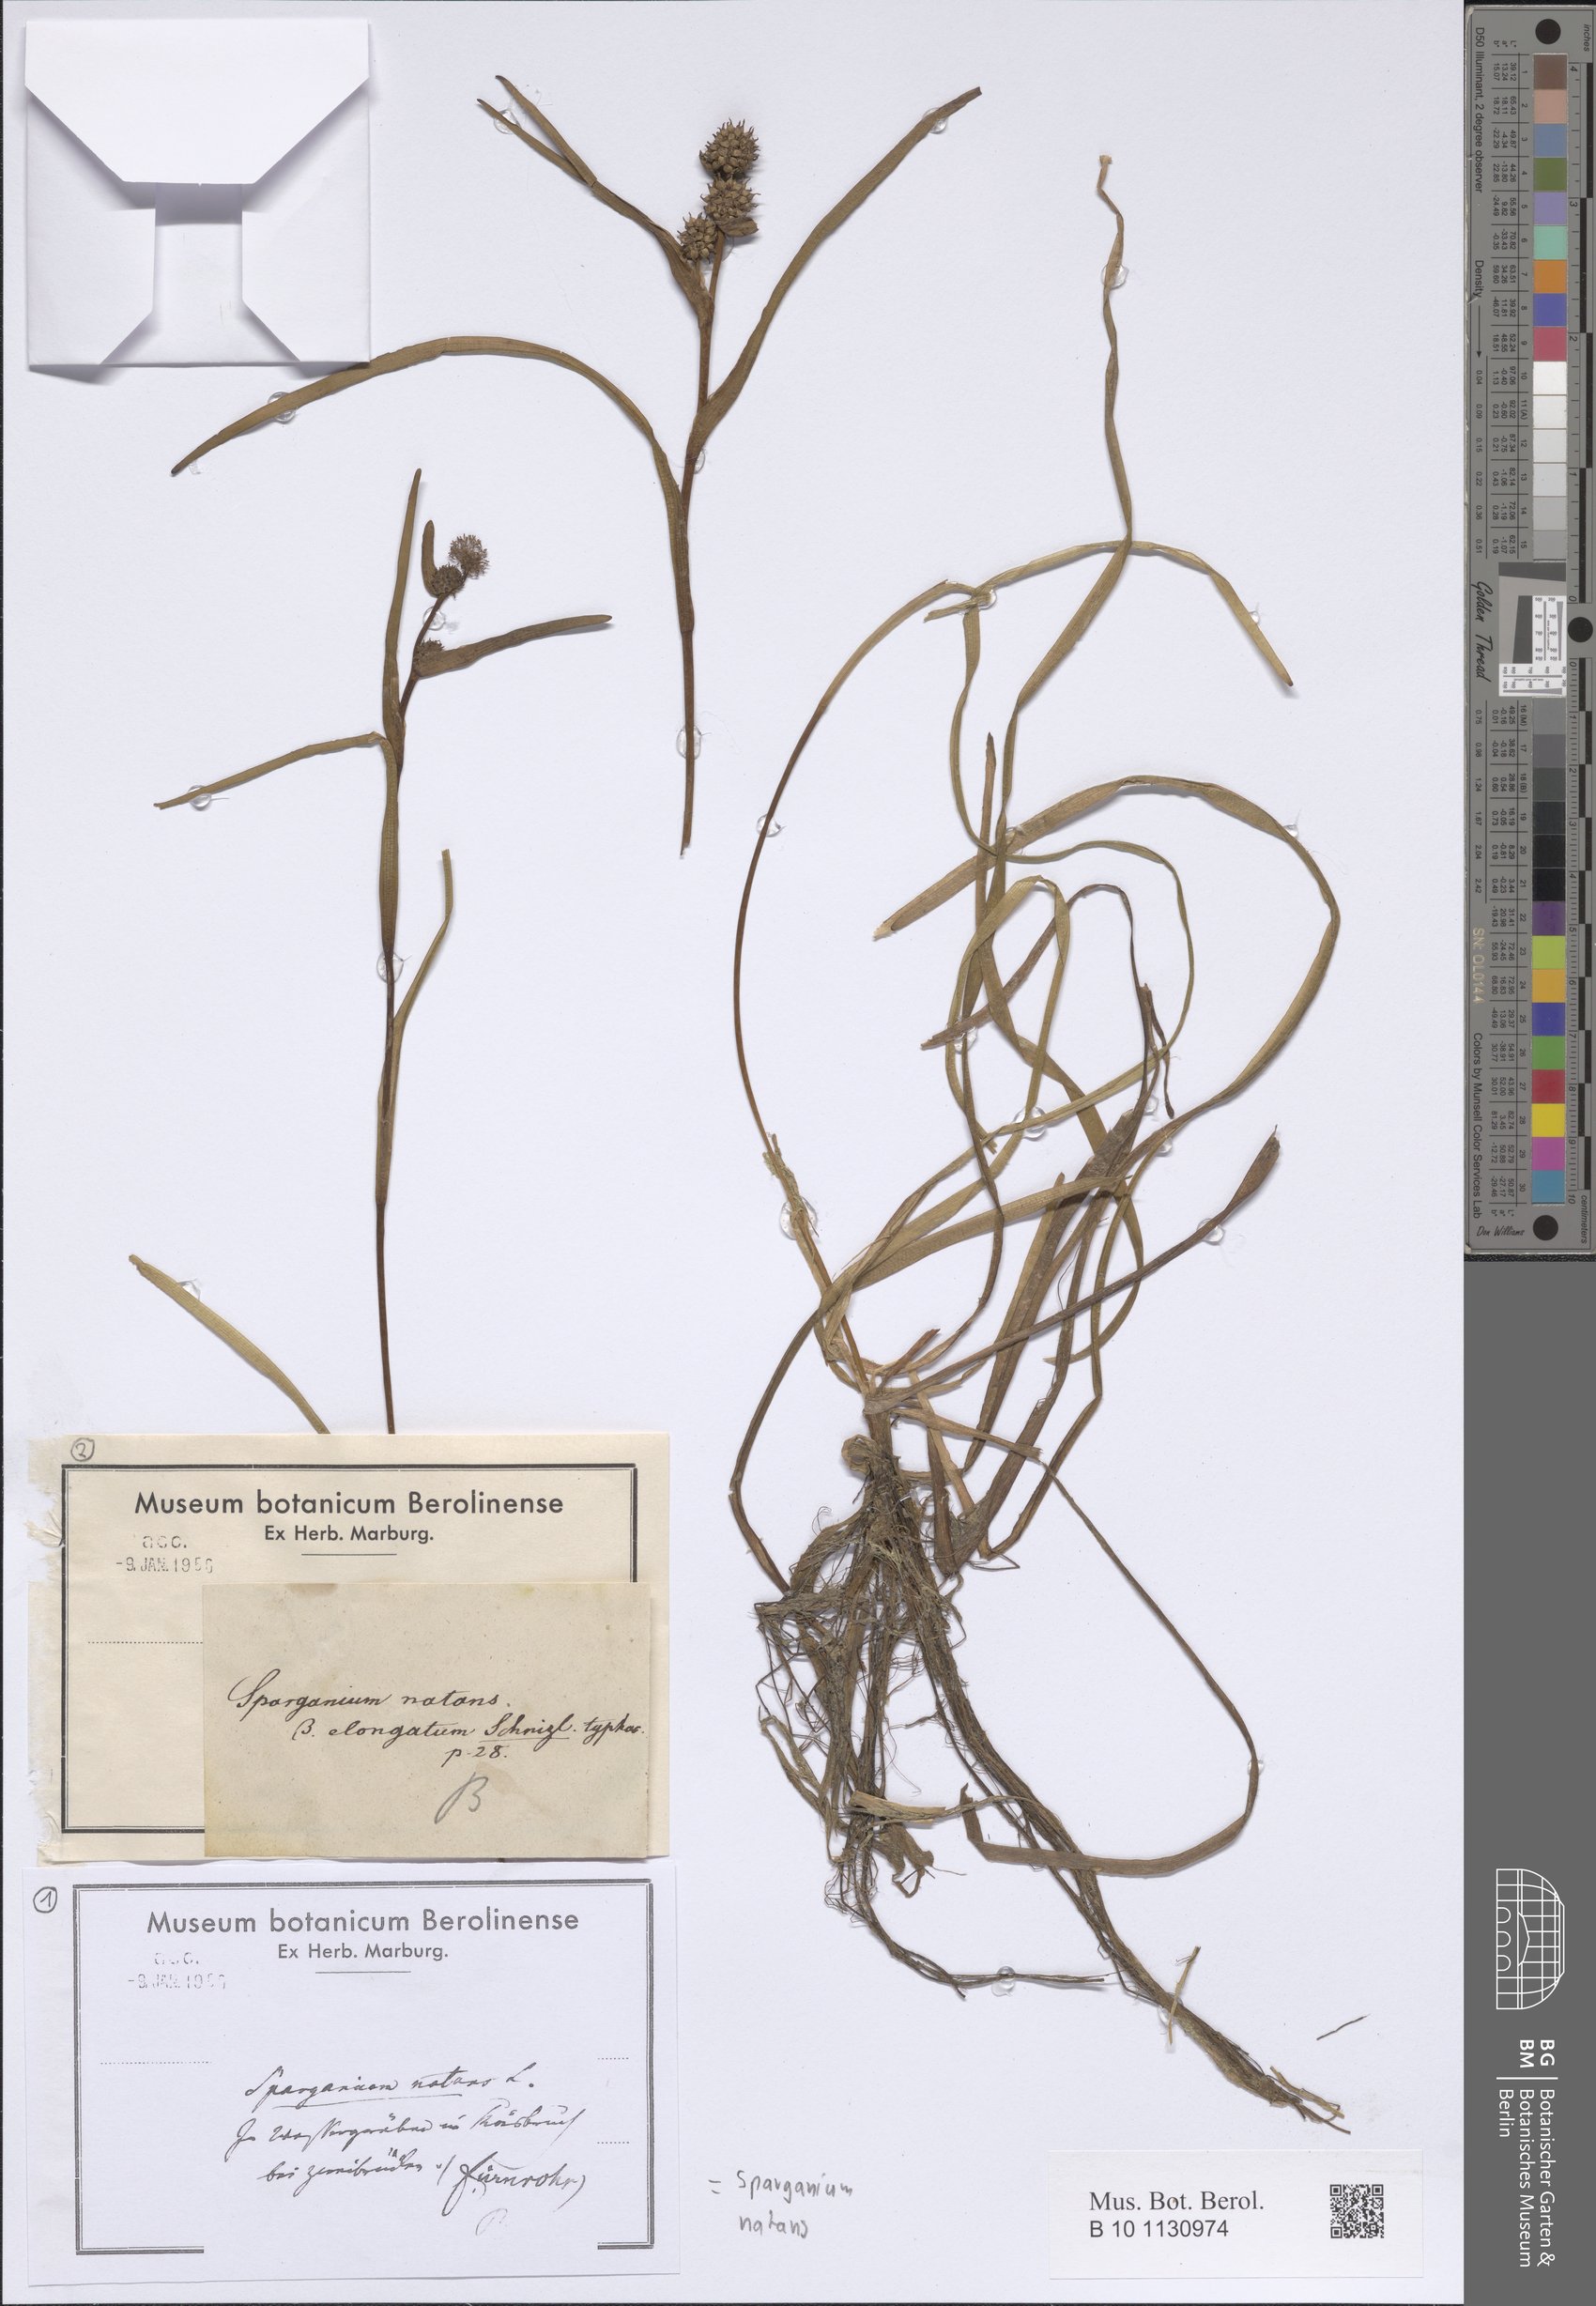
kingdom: Plantae
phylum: Tracheophyta
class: Liliopsida
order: Poales
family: Typhaceae
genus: Sparganium
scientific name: Sparganium natans
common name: Least bur-reed
